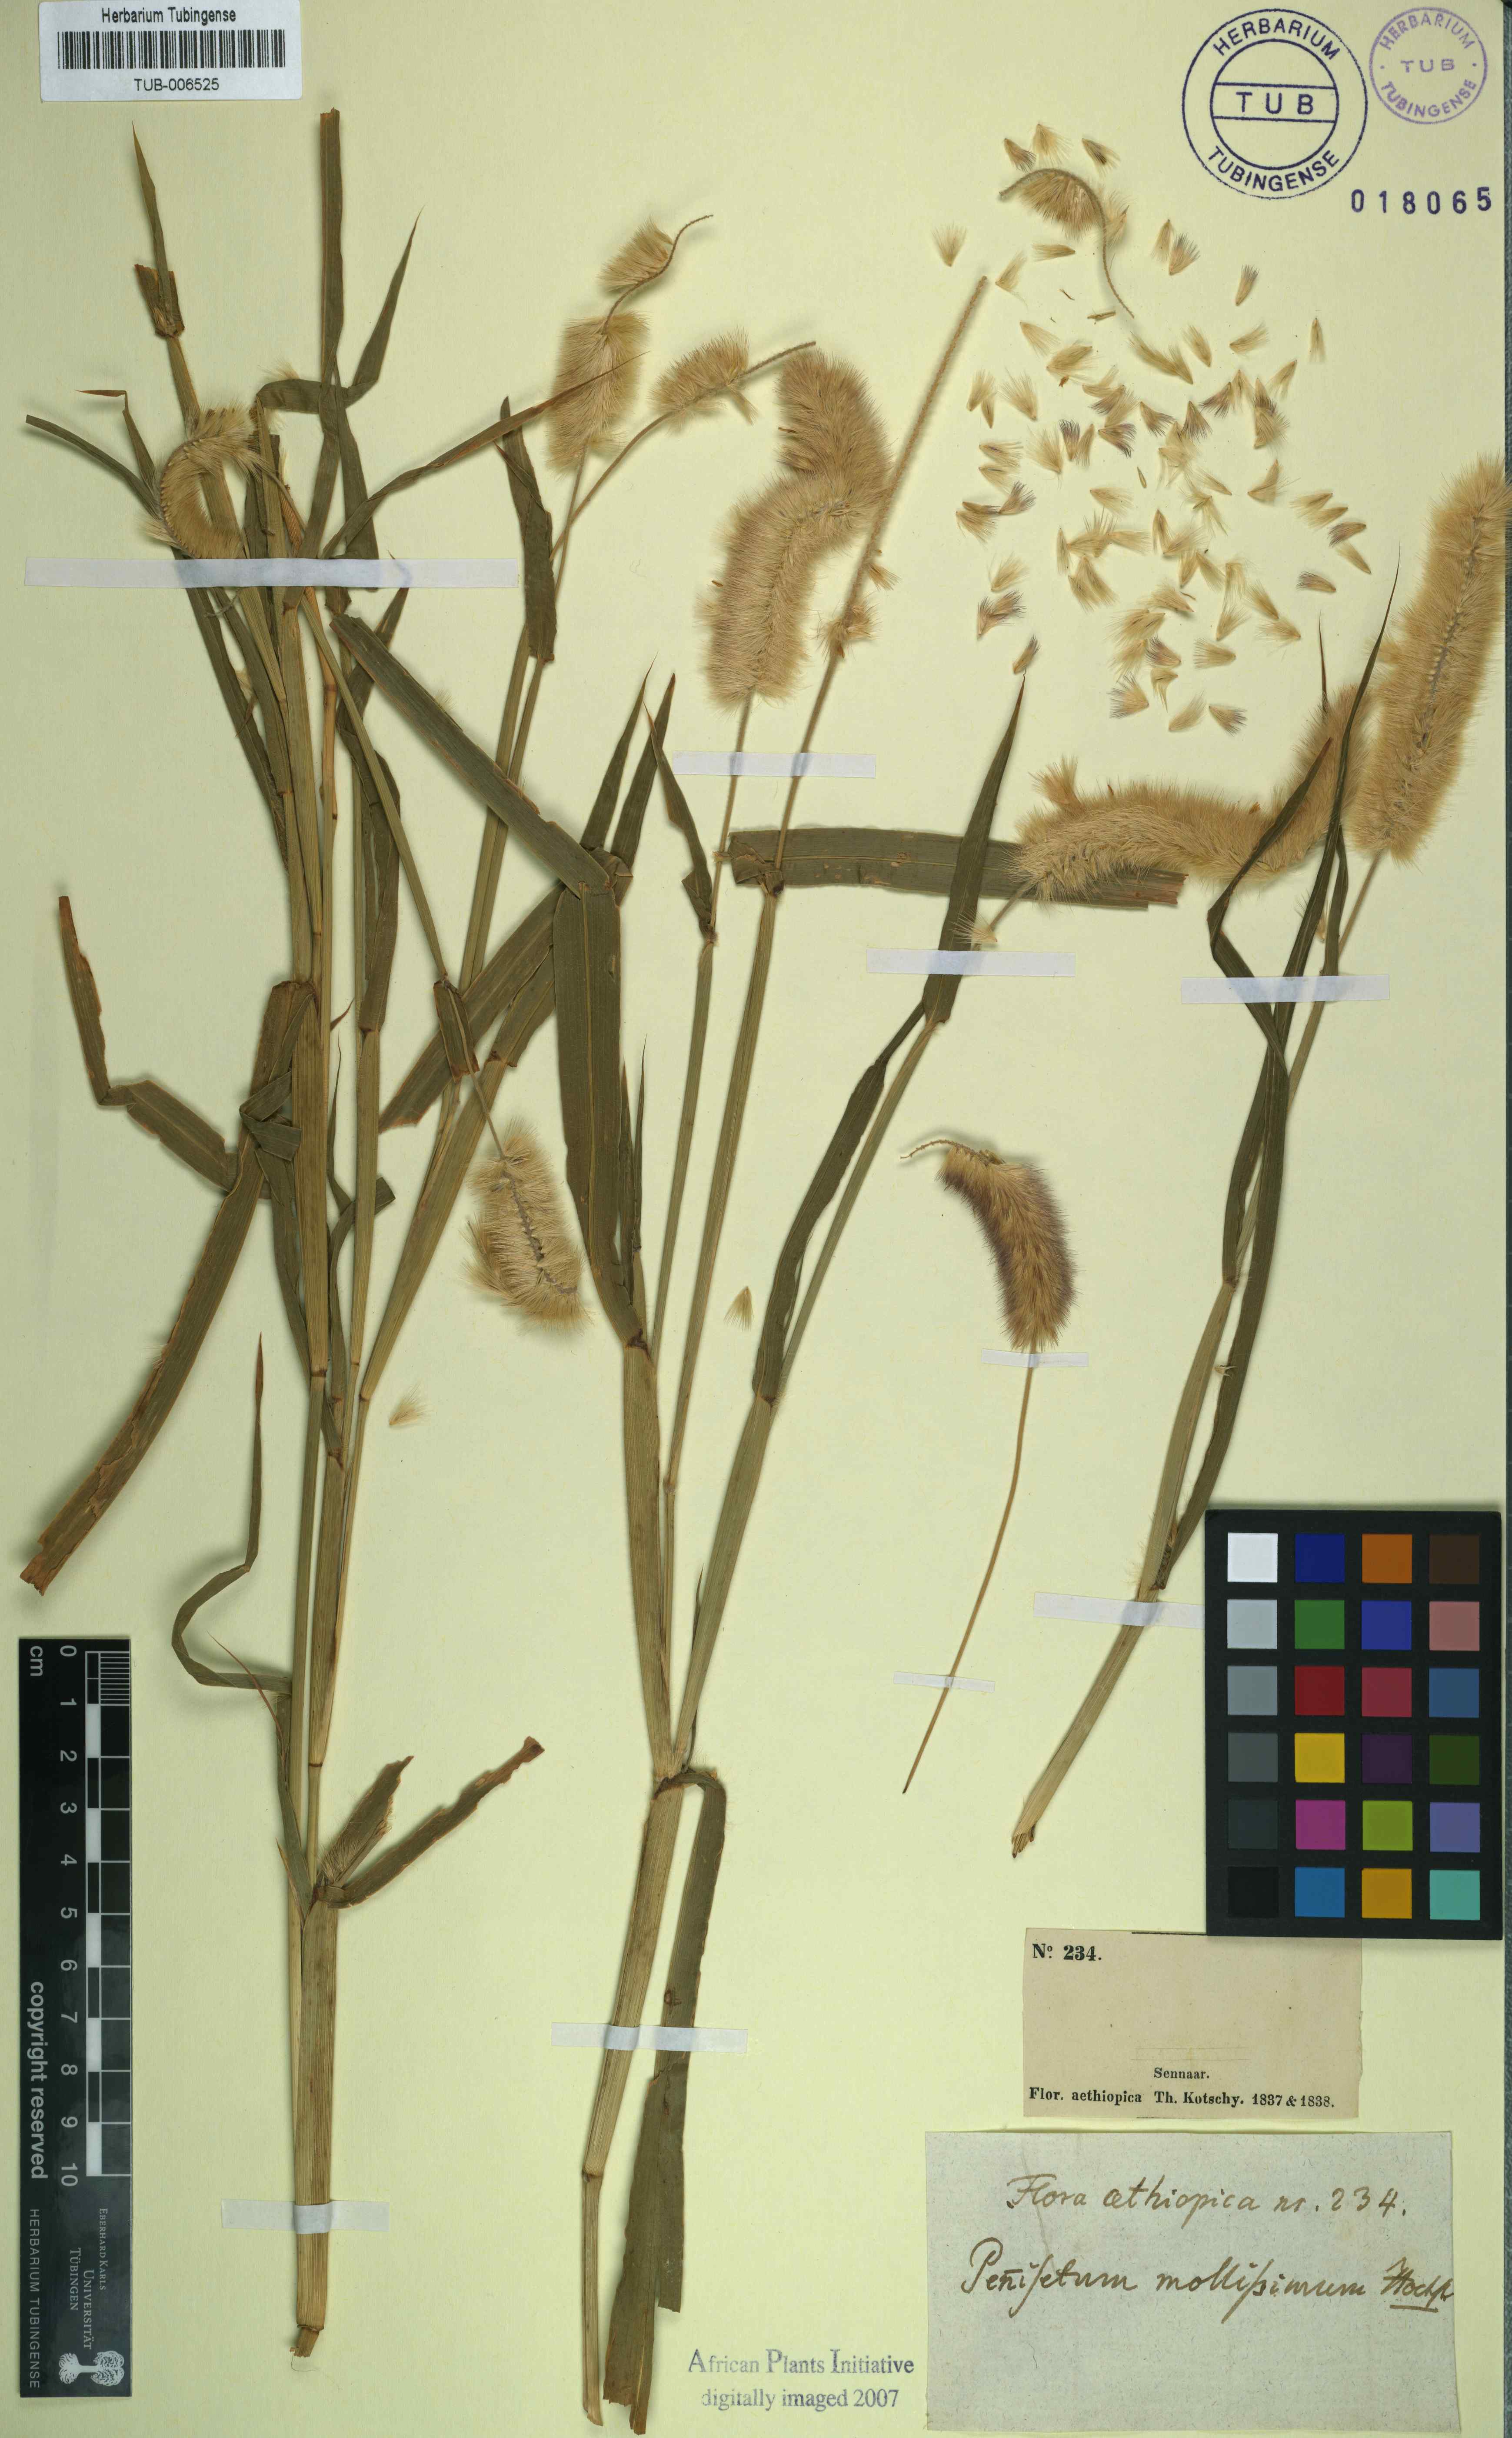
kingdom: Plantae
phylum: Tracheophyta
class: Liliopsida
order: Poales
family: Poaceae
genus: Cenchrus
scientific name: Cenchrus violaceus
